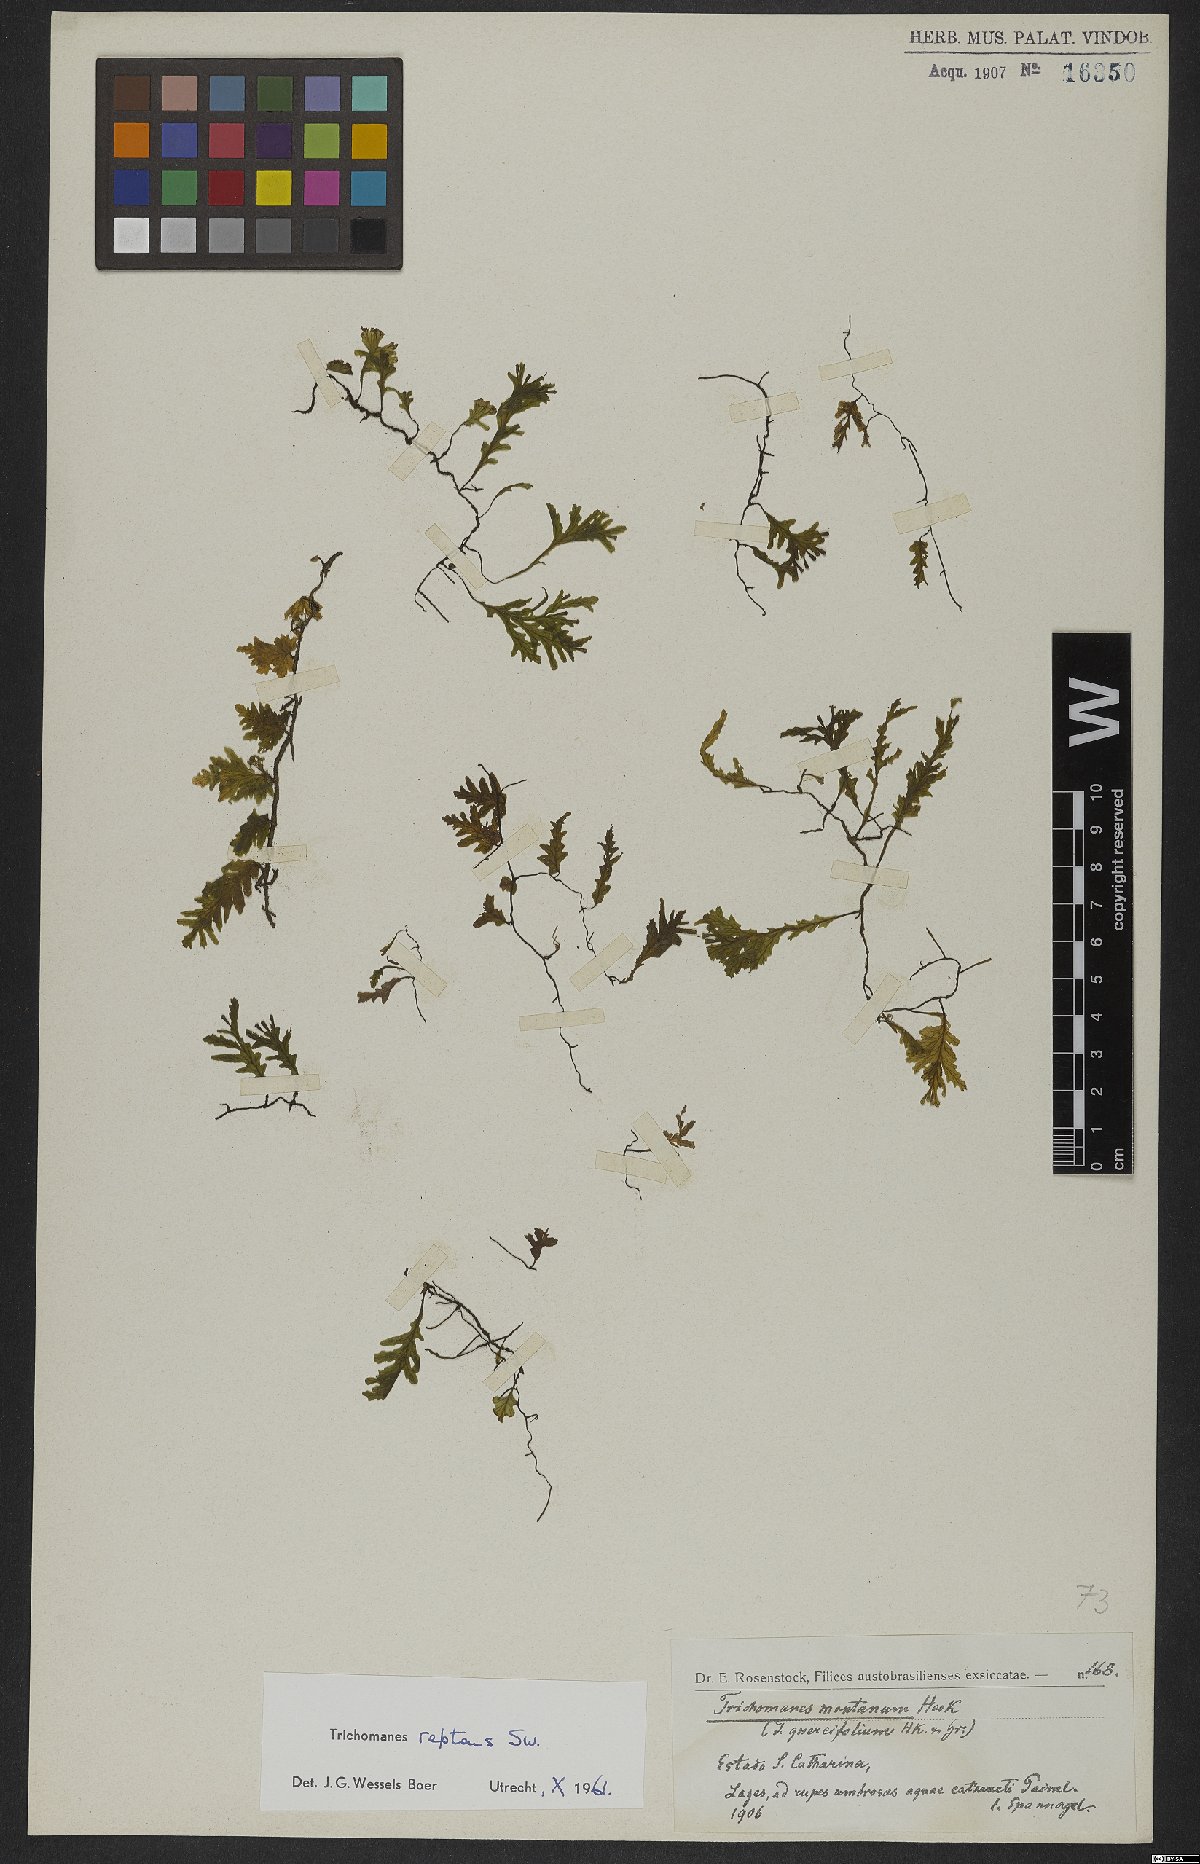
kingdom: Plantae
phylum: Tracheophyta
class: Polypodiopsida
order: Polypodiales
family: Pteridaceae
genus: Pteris
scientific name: Pteris propinqua
